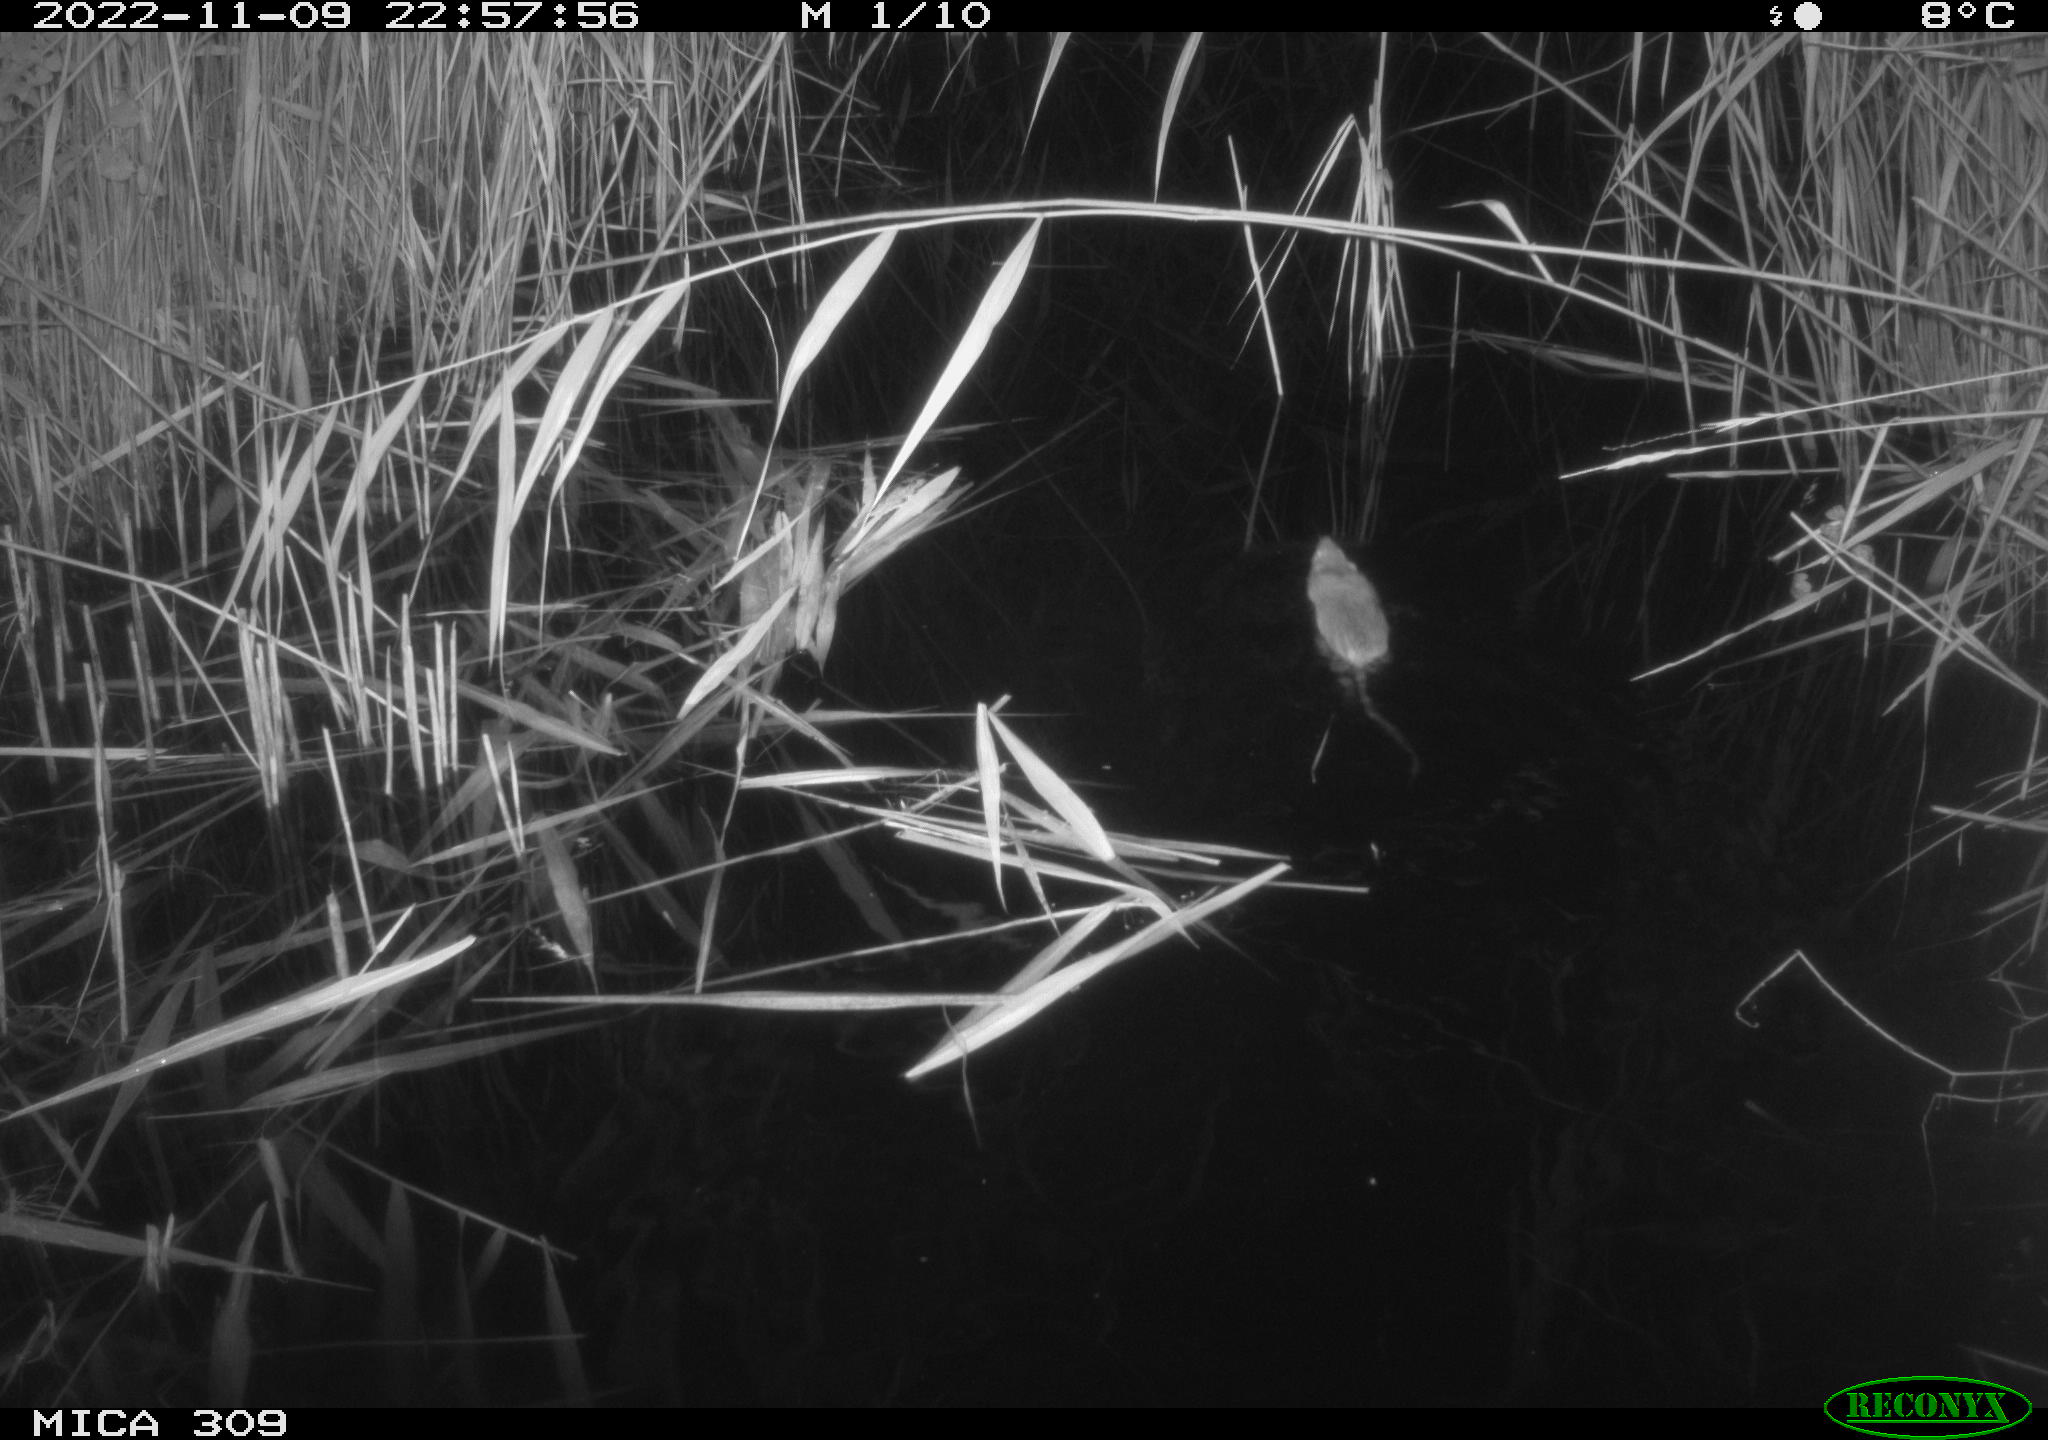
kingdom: Animalia
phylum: Chordata
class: Mammalia
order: Rodentia
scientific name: Rodentia
